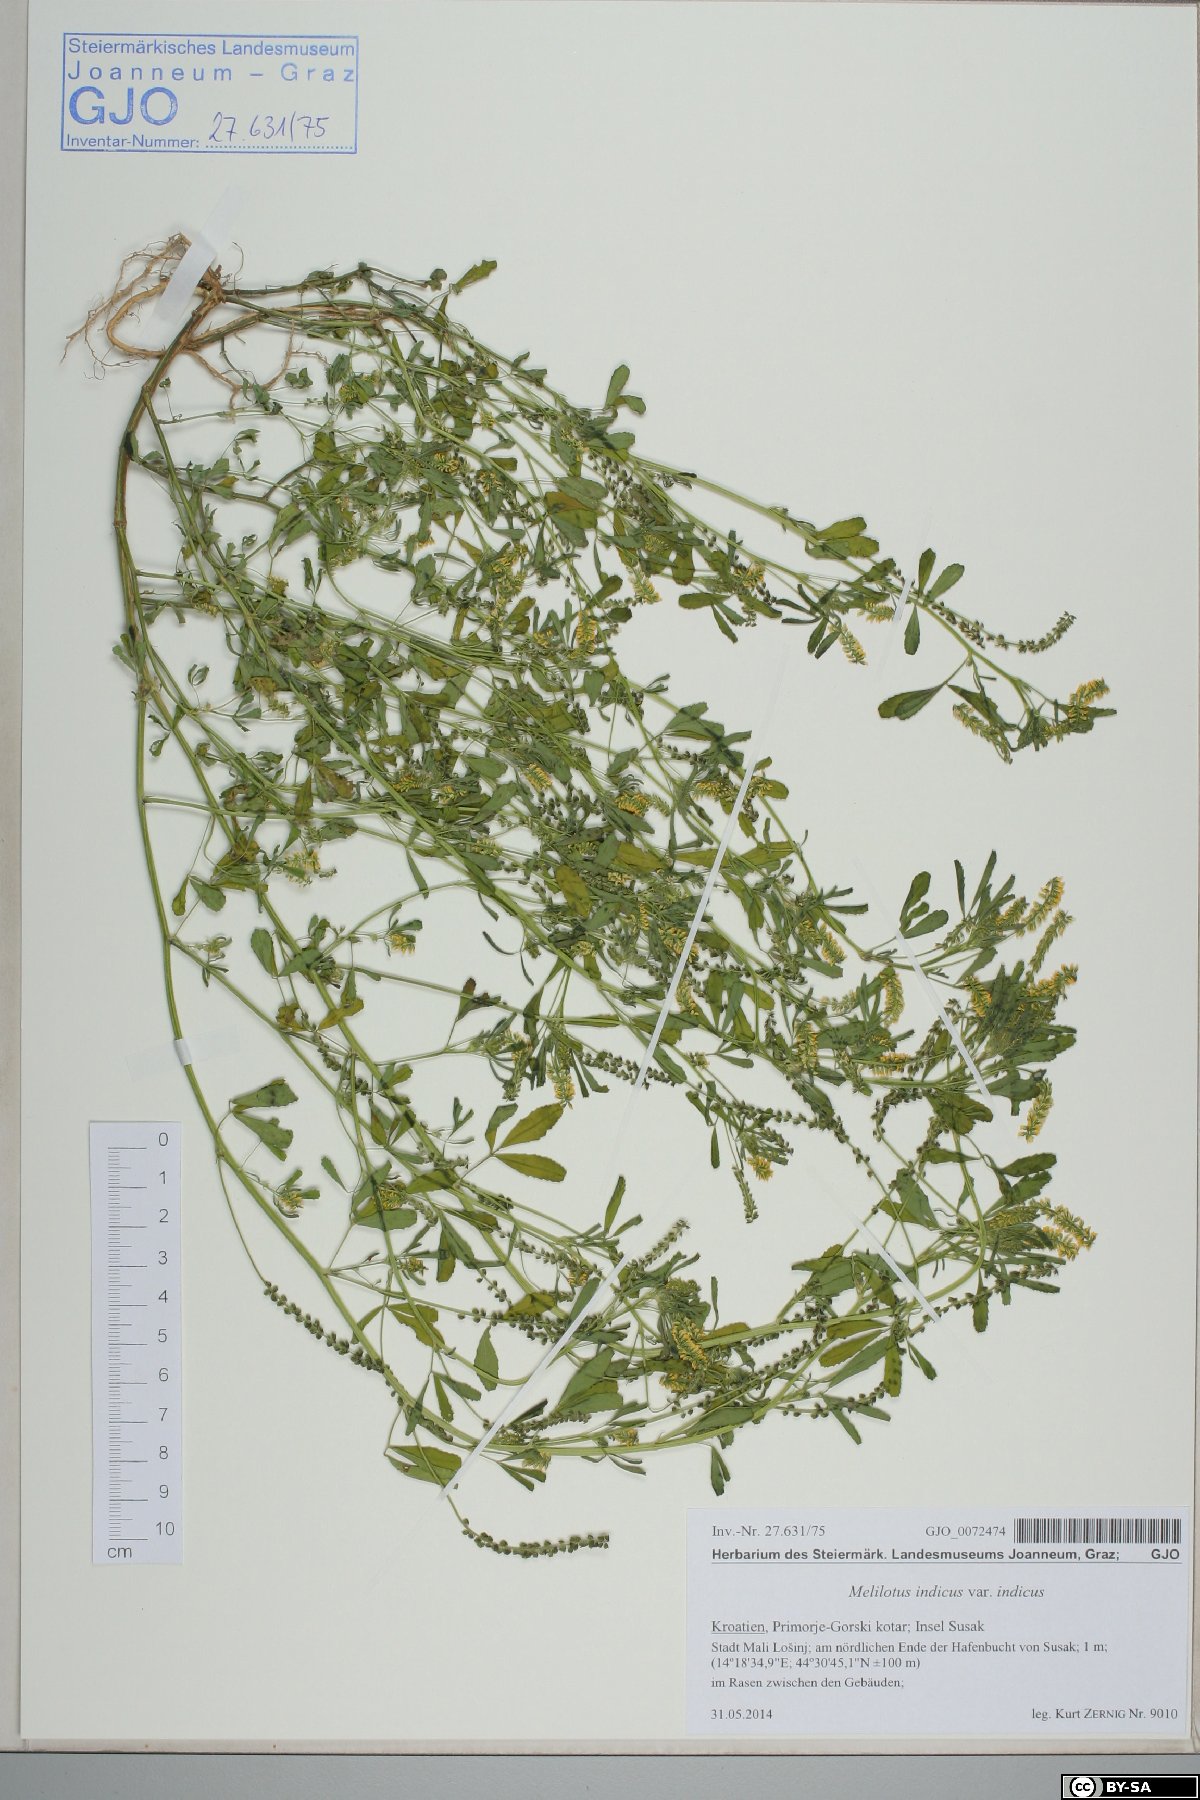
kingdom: Plantae
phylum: Tracheophyta
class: Magnoliopsida
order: Fabales
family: Fabaceae
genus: Melilotus
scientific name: Melilotus indicus
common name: Small melilot
